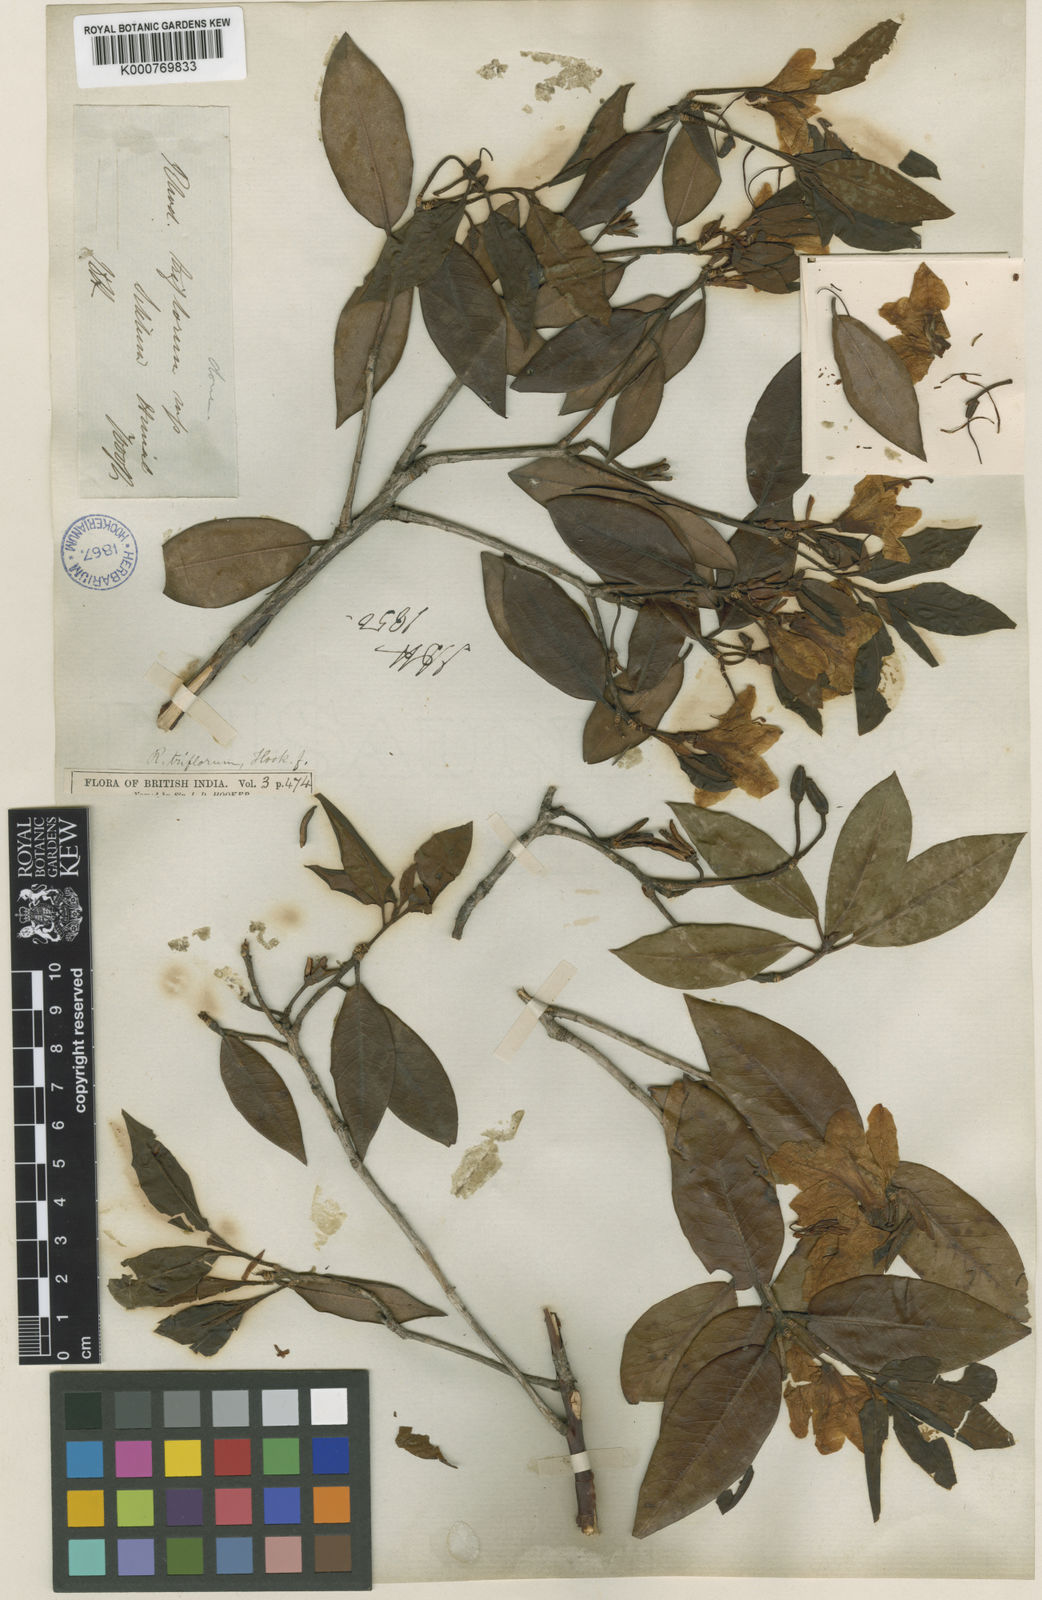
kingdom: Plantae
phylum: Tracheophyta
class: Magnoliopsida
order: Ericales
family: Ericaceae
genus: Rhododendron
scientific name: Rhododendron triflorum
